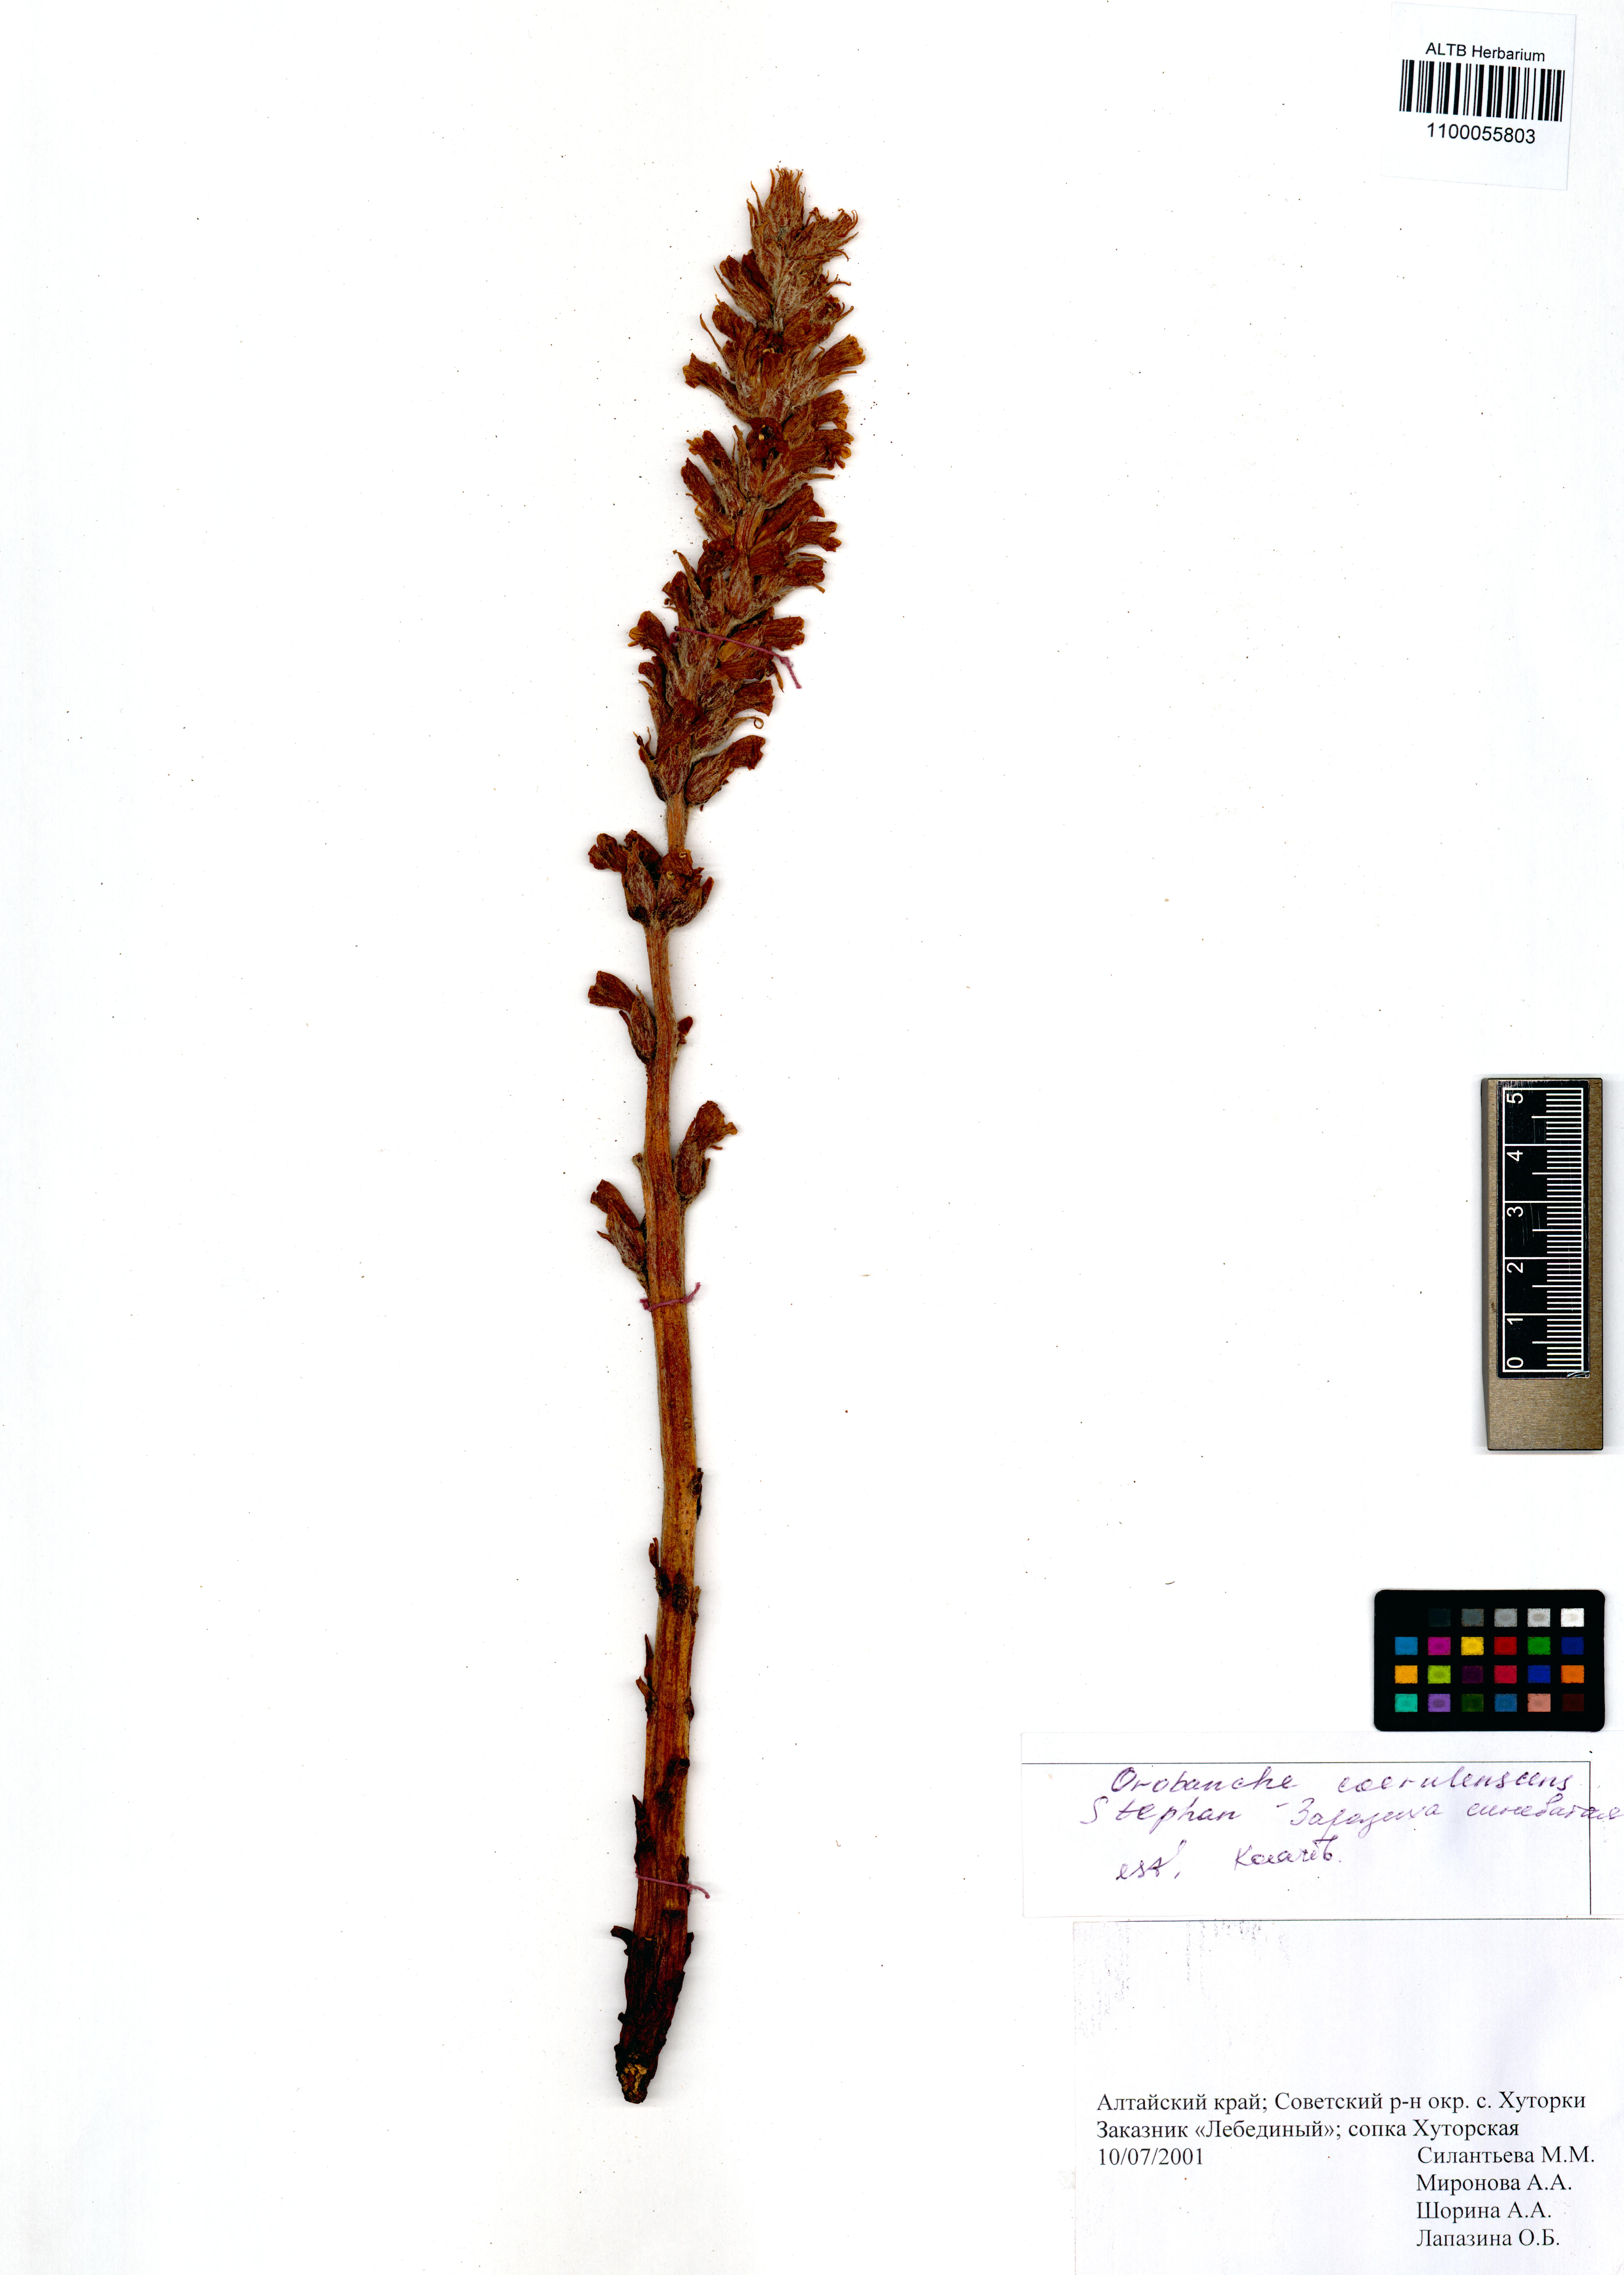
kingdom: Plantae
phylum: Tracheophyta
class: Magnoliopsida
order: Lamiales
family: Orobanchaceae
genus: Orobanche
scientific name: Orobanche coerulescens
